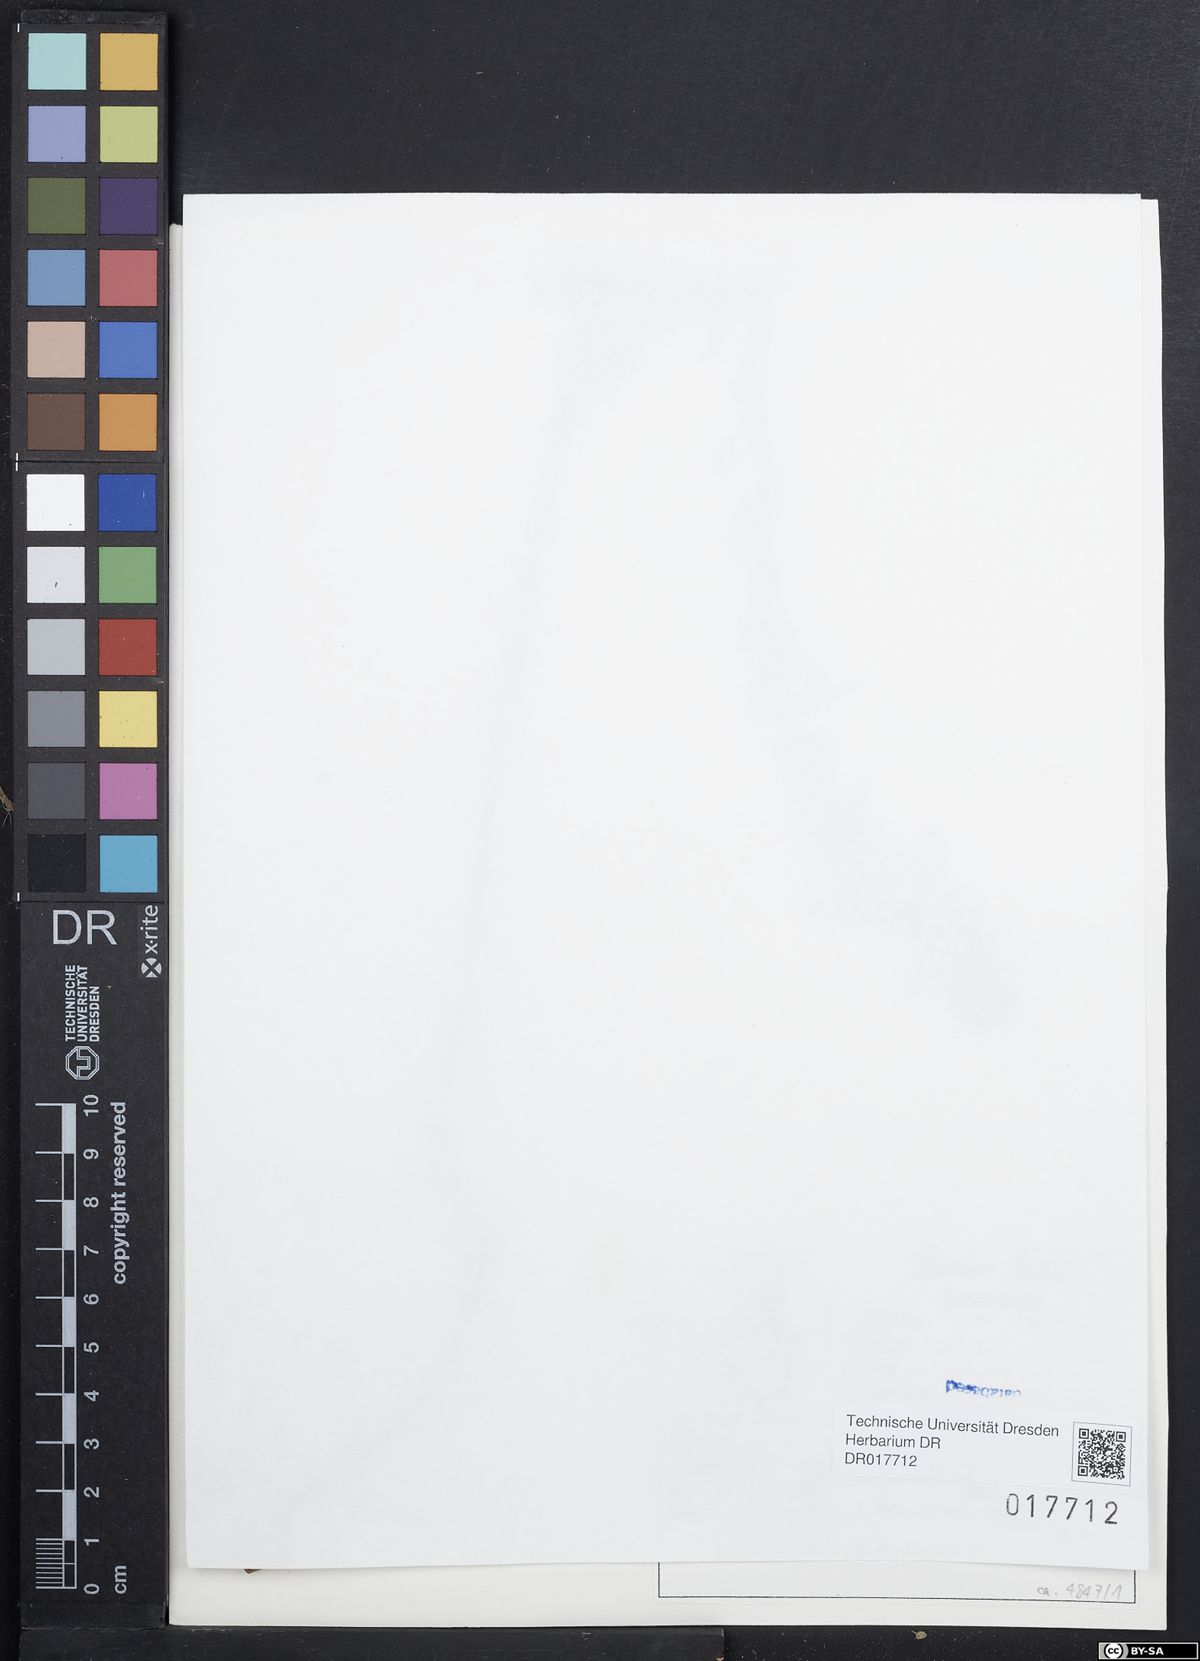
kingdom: Plantae
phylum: Tracheophyta
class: Magnoliopsida
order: Malpighiales
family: Euphorbiaceae
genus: Euphorbia
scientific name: Euphorbia platyphyllos
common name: Broad-leaved spurge
